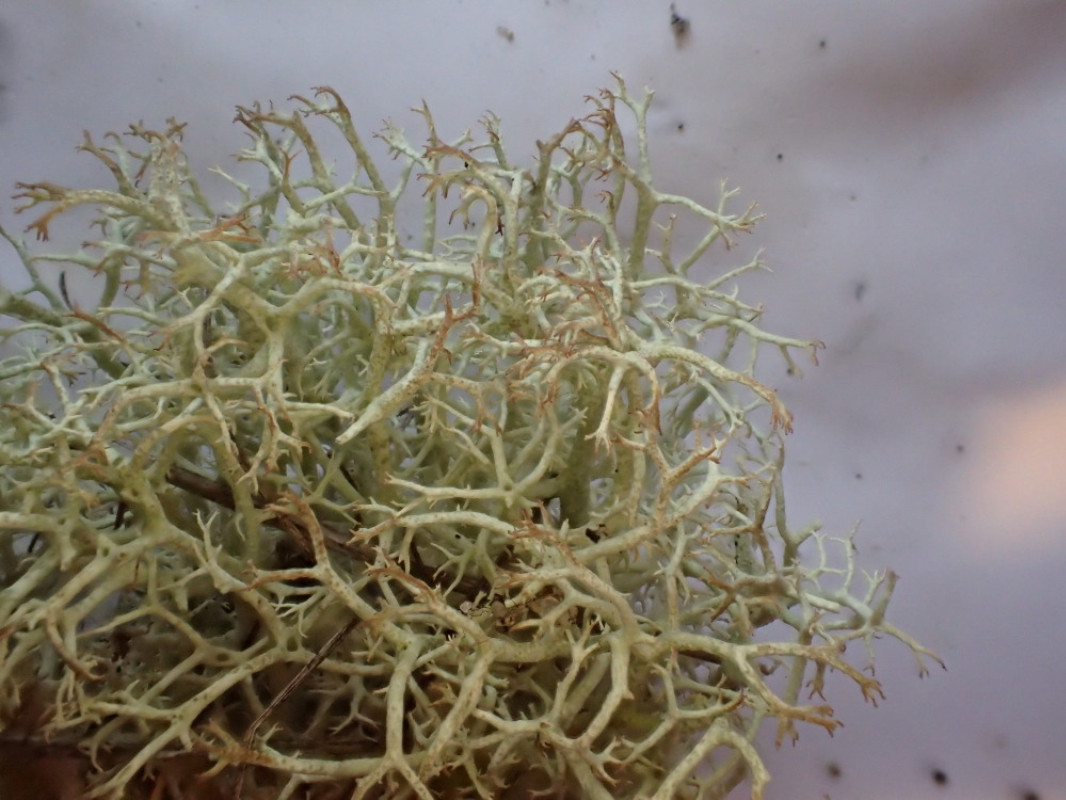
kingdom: Fungi
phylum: Ascomycota
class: Lecanoromycetes
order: Lecanorales
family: Cladoniaceae
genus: Cladonia
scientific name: Cladonia portentosa
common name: hede-rensdyrlav
